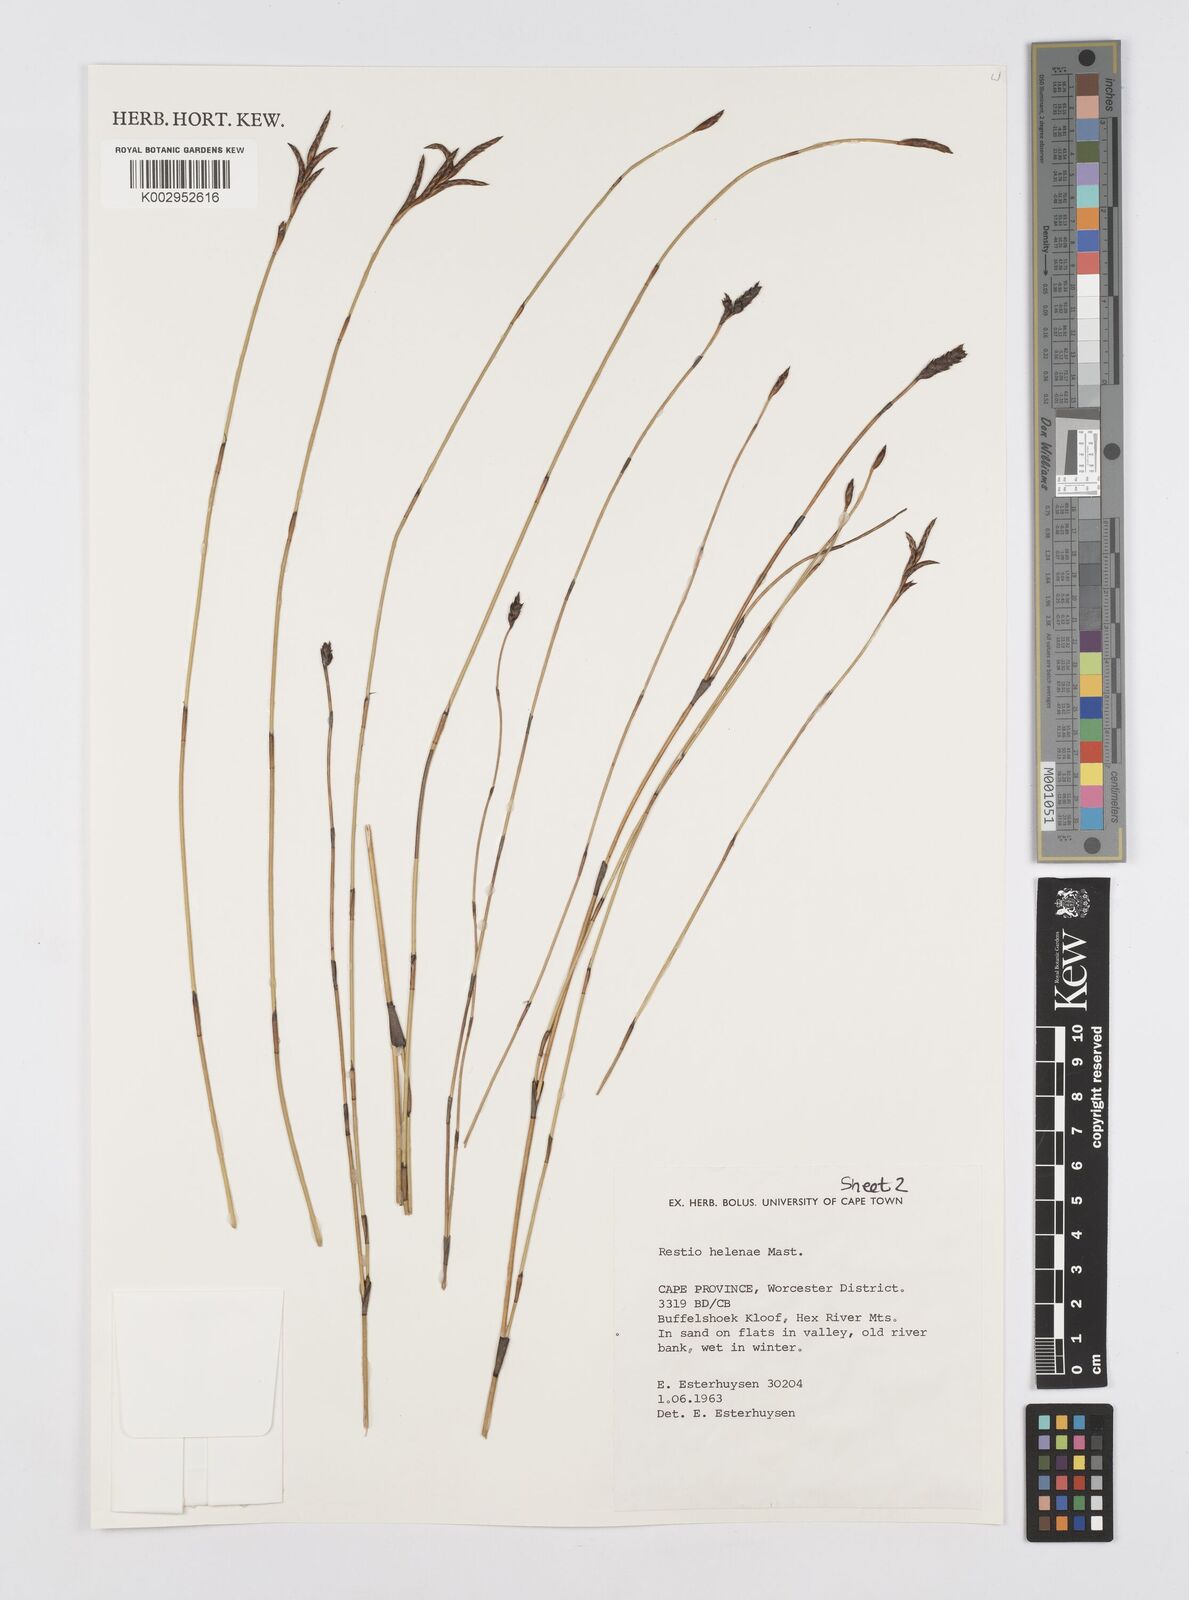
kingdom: Plantae
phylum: Tracheophyta
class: Liliopsida
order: Poales
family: Restionaceae
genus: Restio
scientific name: Restio helenae
